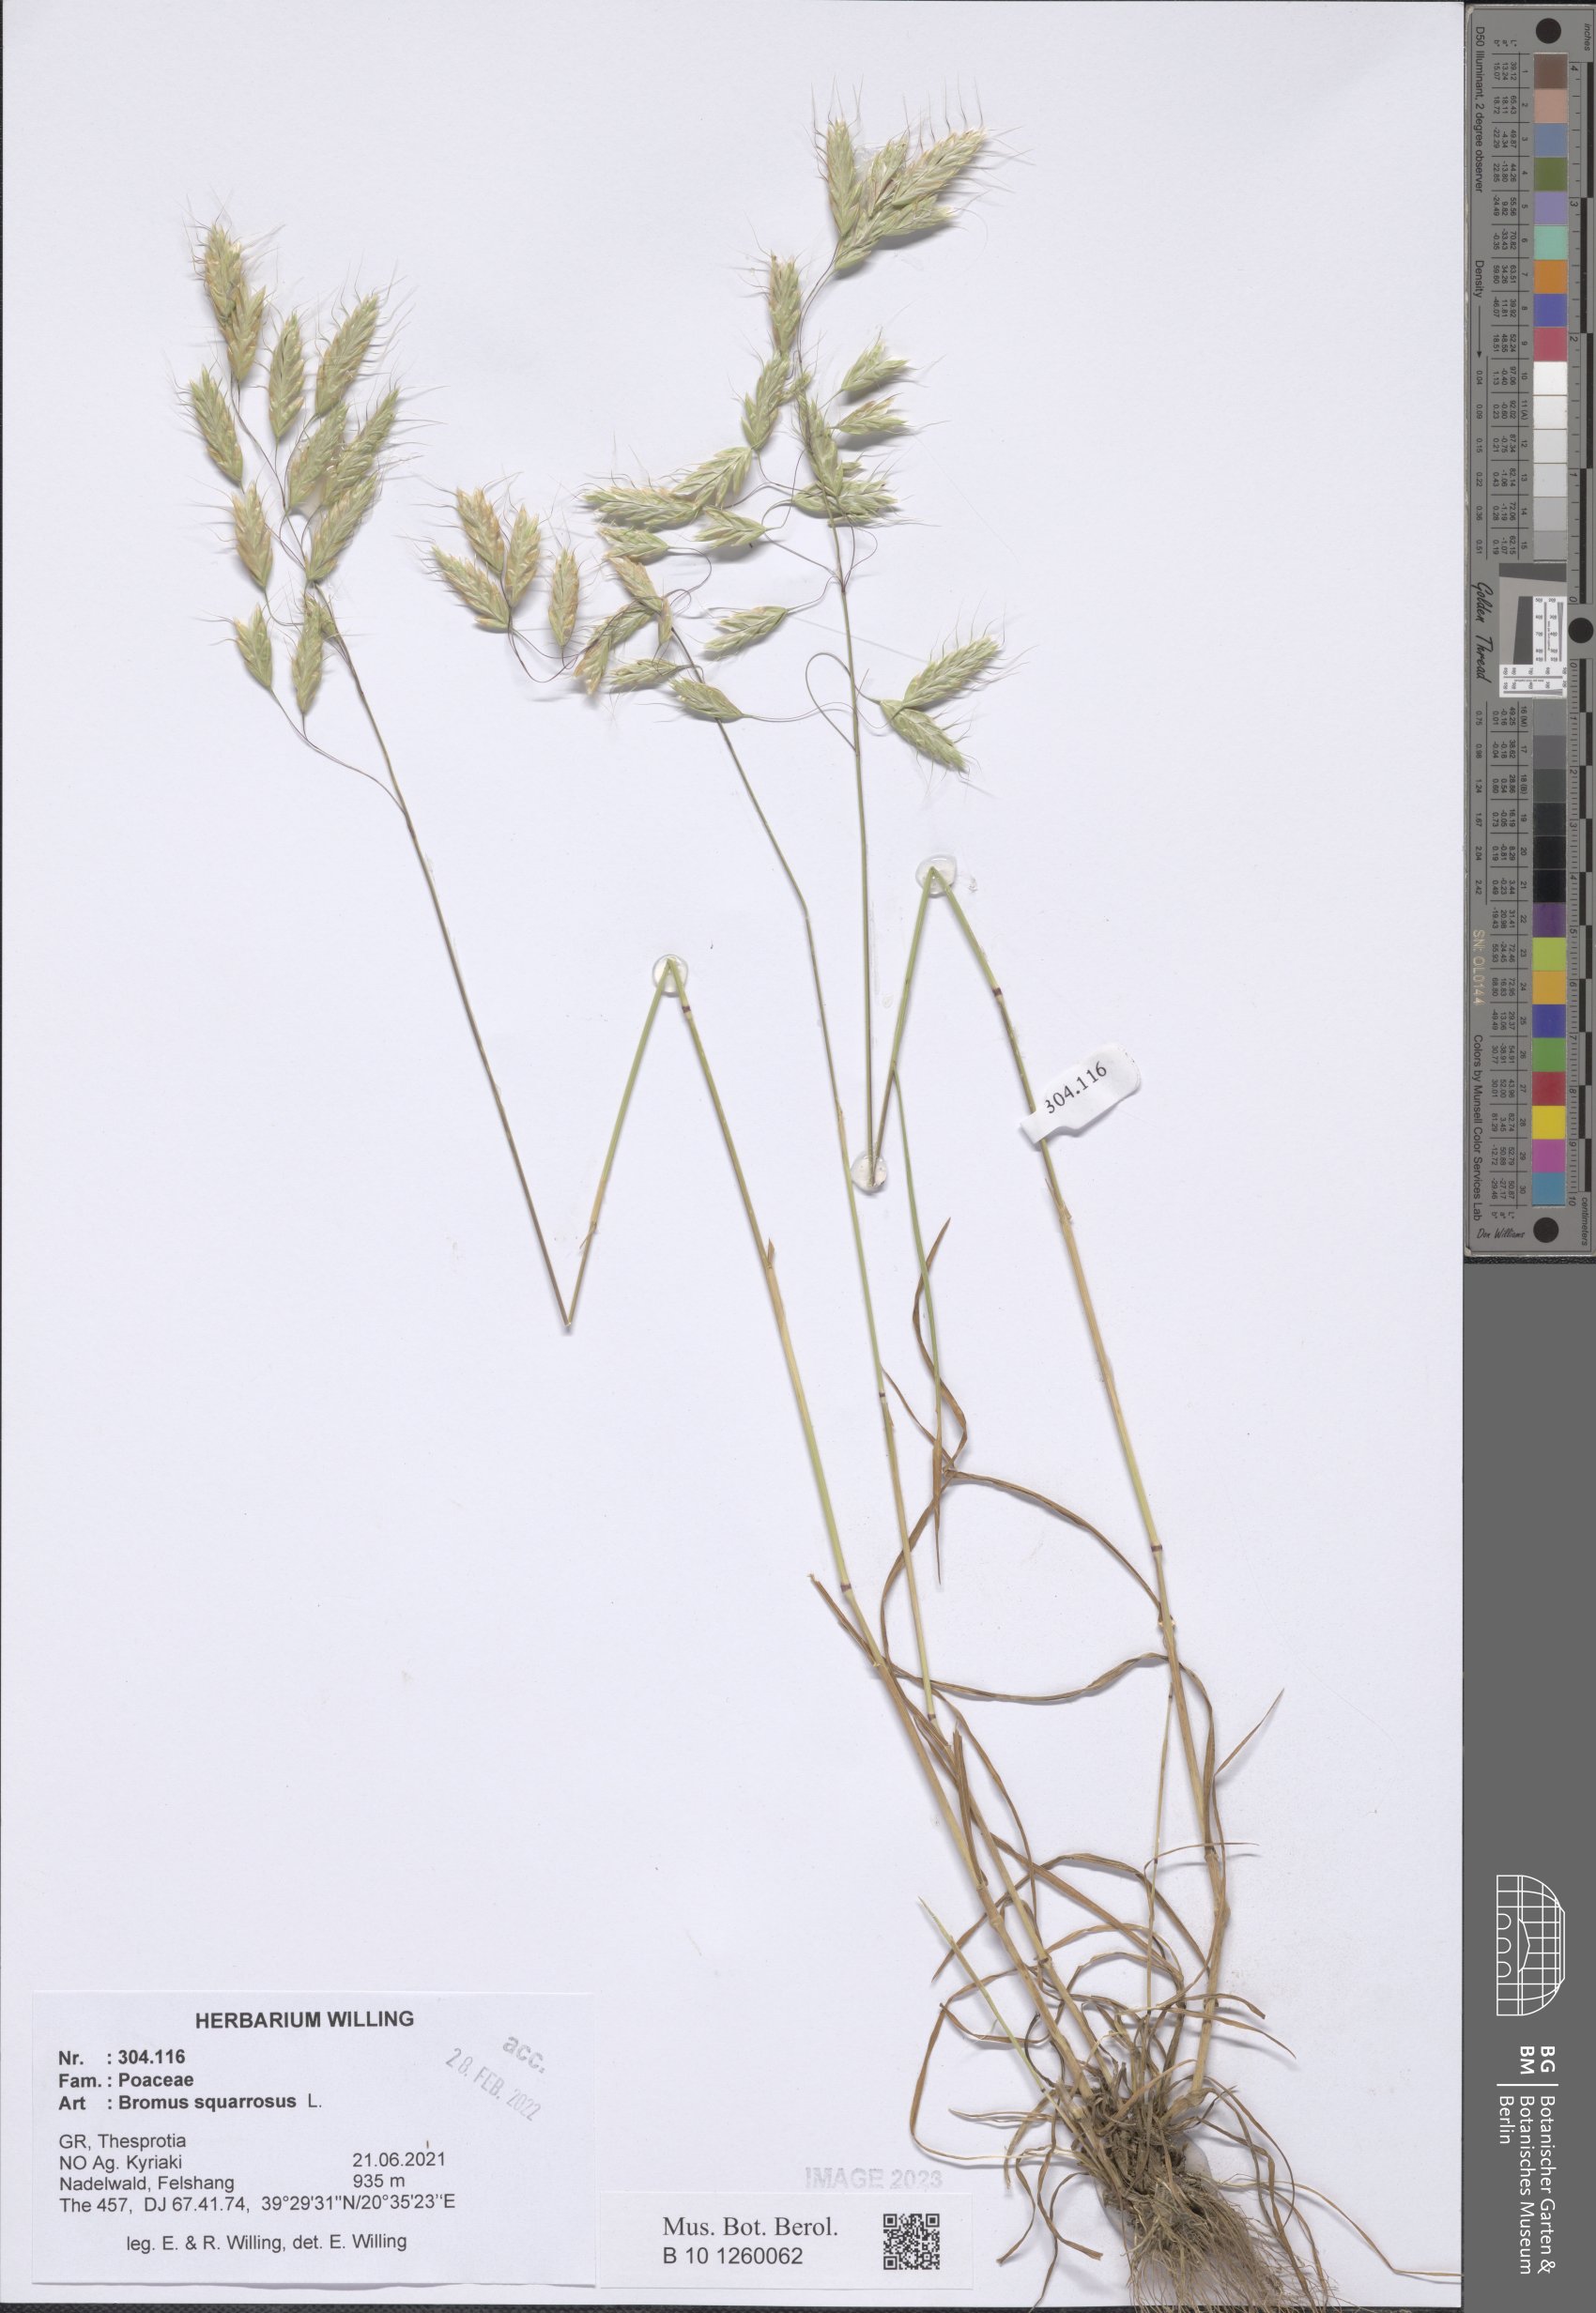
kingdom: Plantae
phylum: Tracheophyta
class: Liliopsida
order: Poales
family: Poaceae
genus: Bromus
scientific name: Bromus squarrosus
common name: Corn brome
